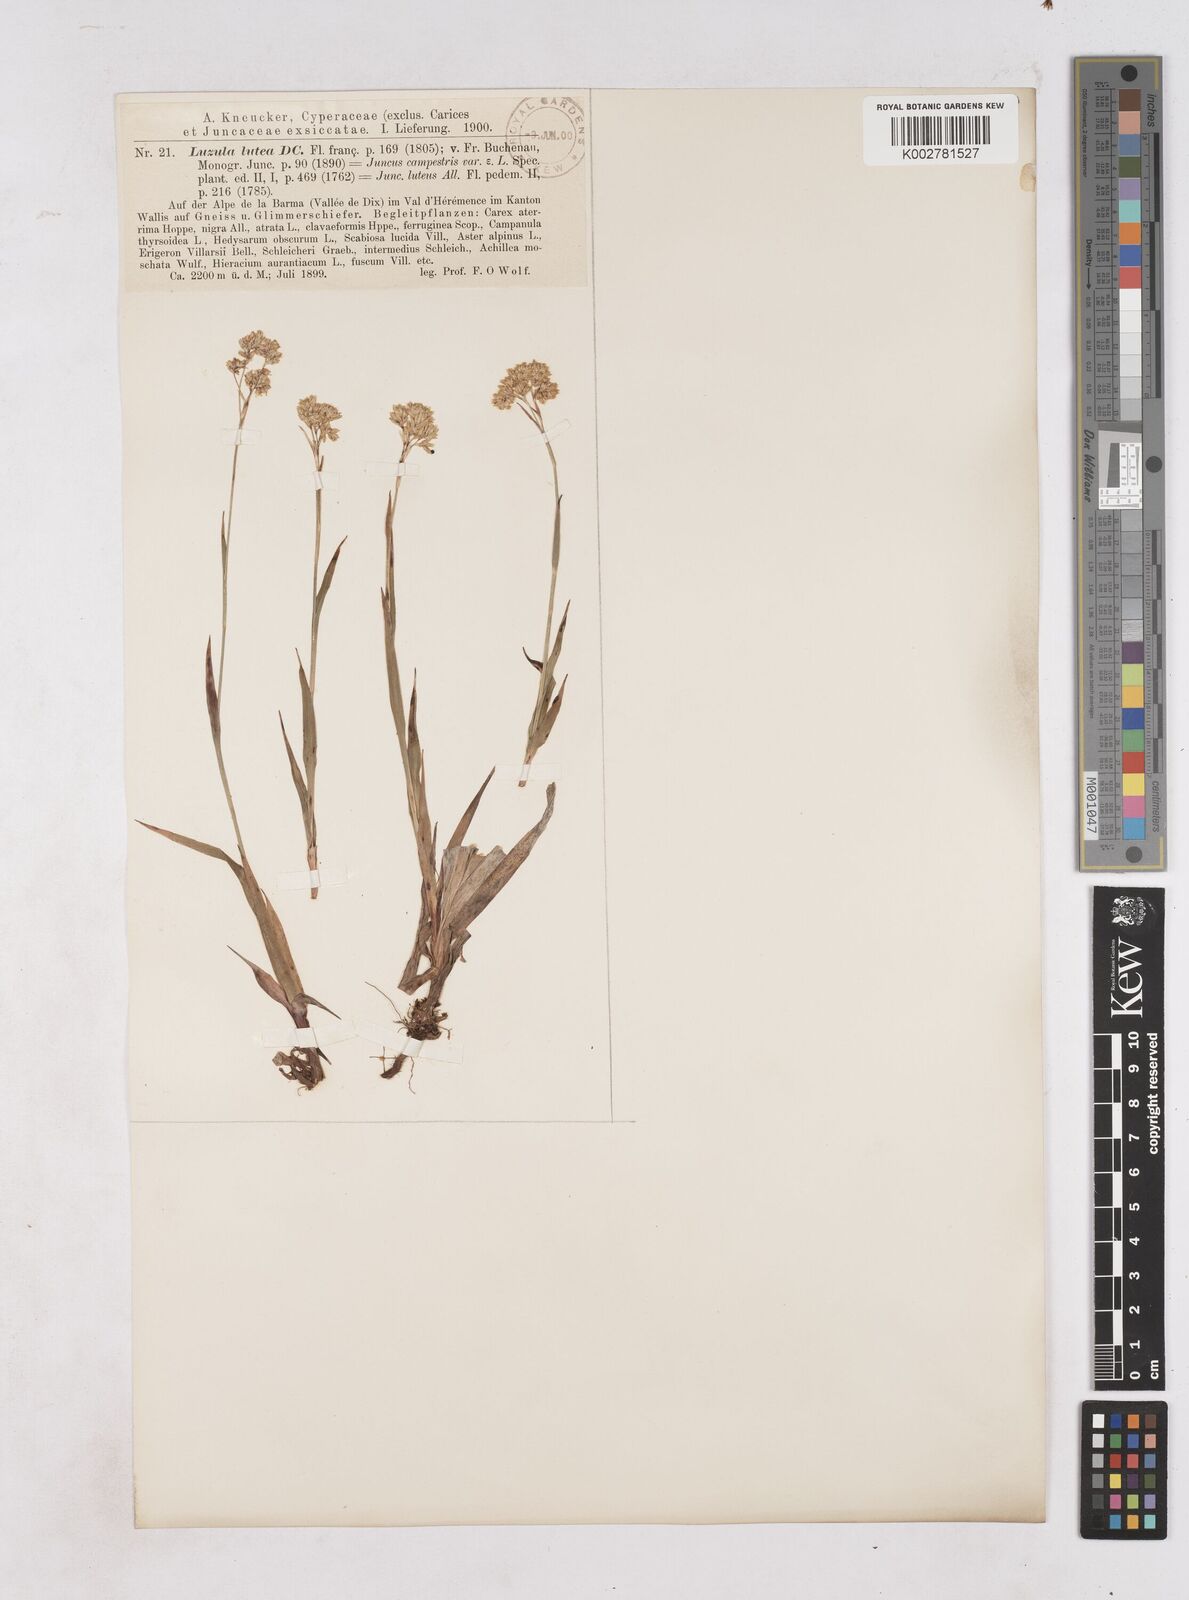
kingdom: Plantae
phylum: Tracheophyta
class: Liliopsida
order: Poales
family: Juncaceae
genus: Luzula
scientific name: Luzula lutea
